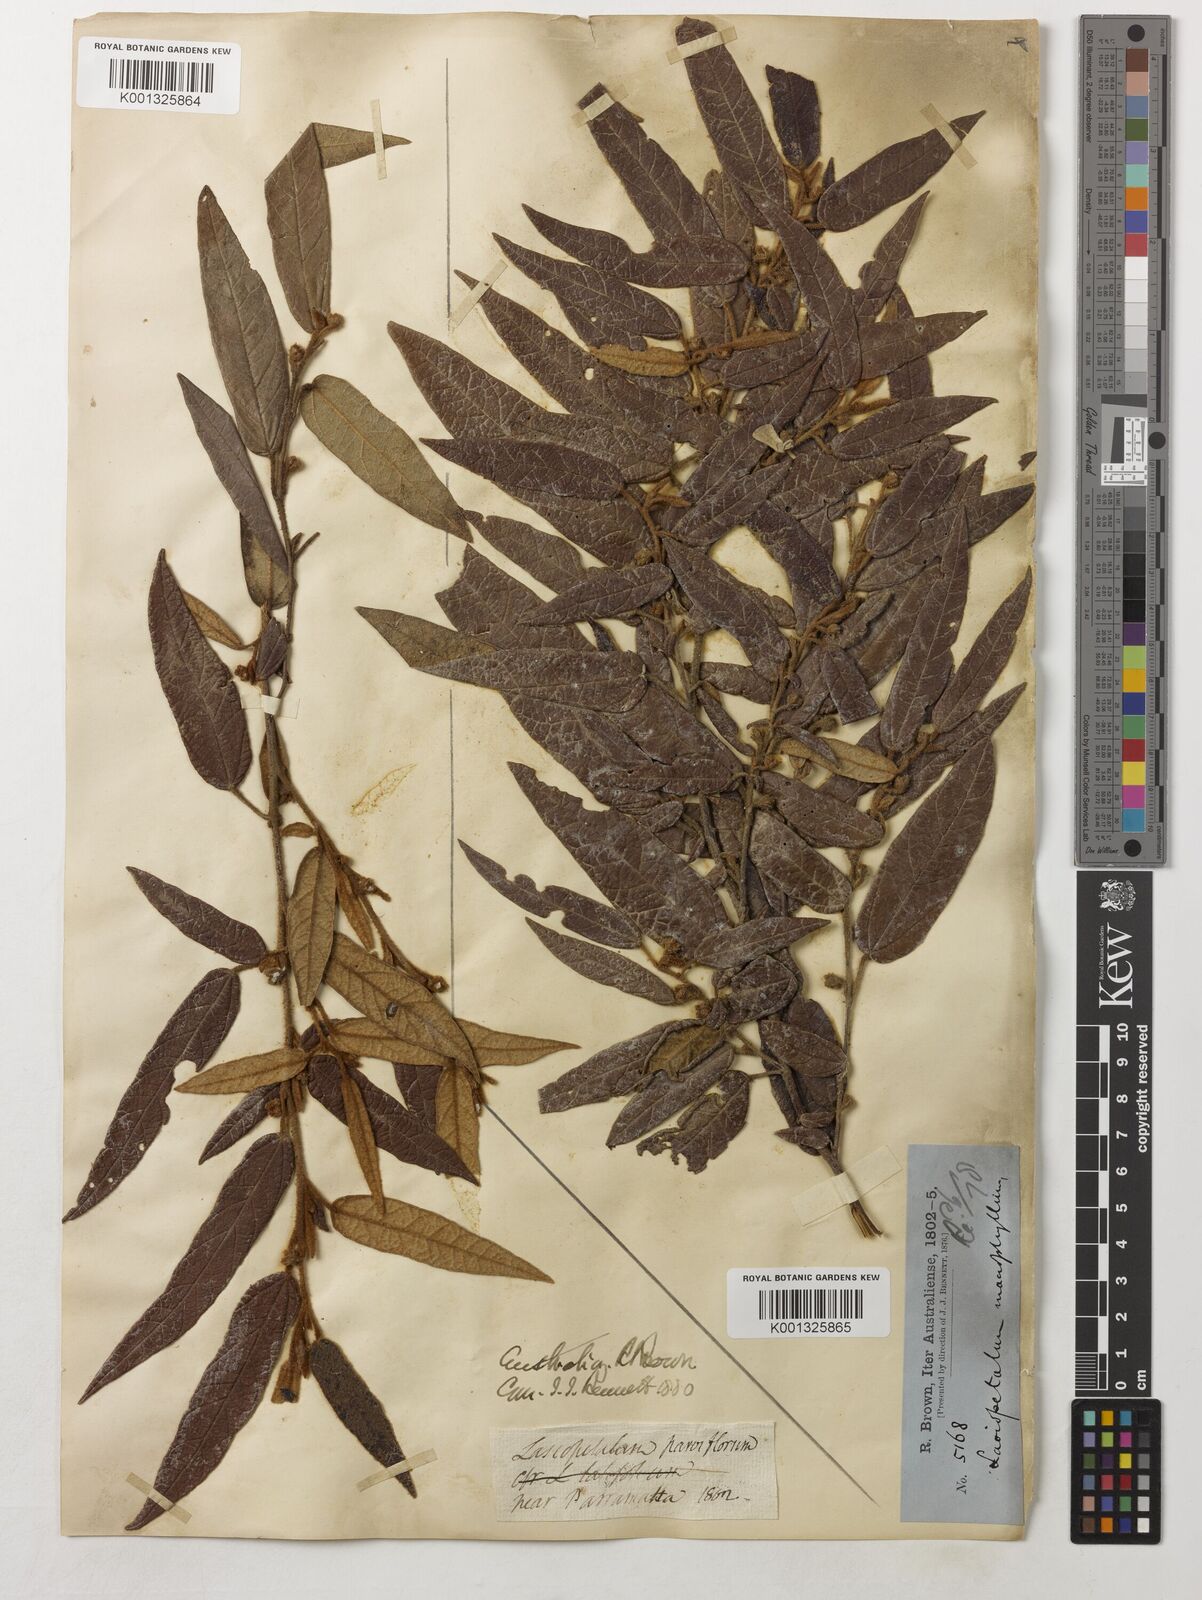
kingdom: Plantae
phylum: Tracheophyta
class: Magnoliopsida
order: Malvales
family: Malvaceae
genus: Lasiopetalum
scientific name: Lasiopetalum macrophyllum
